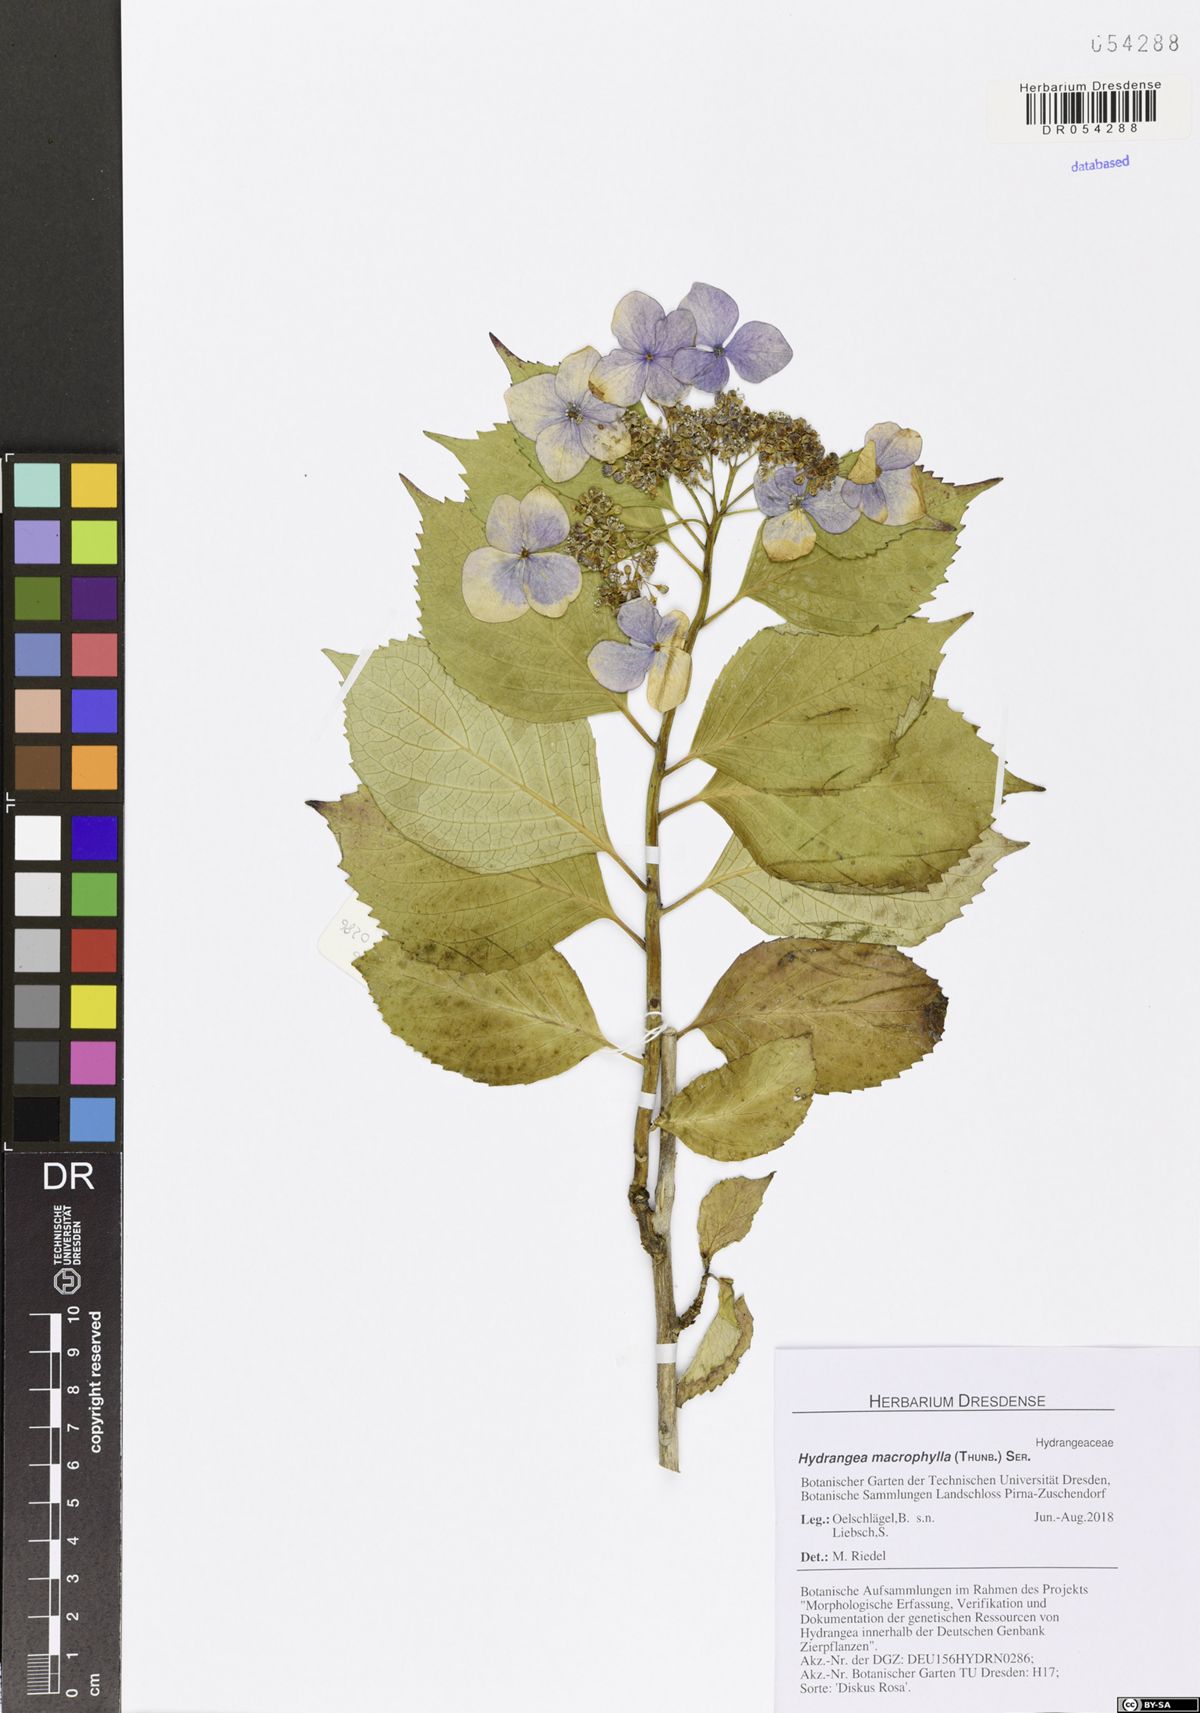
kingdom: Plantae
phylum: Tracheophyta
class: Magnoliopsida
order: Cornales
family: Hydrangeaceae
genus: Hydrangea
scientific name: Hydrangea macrophylla
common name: Hydrangea
